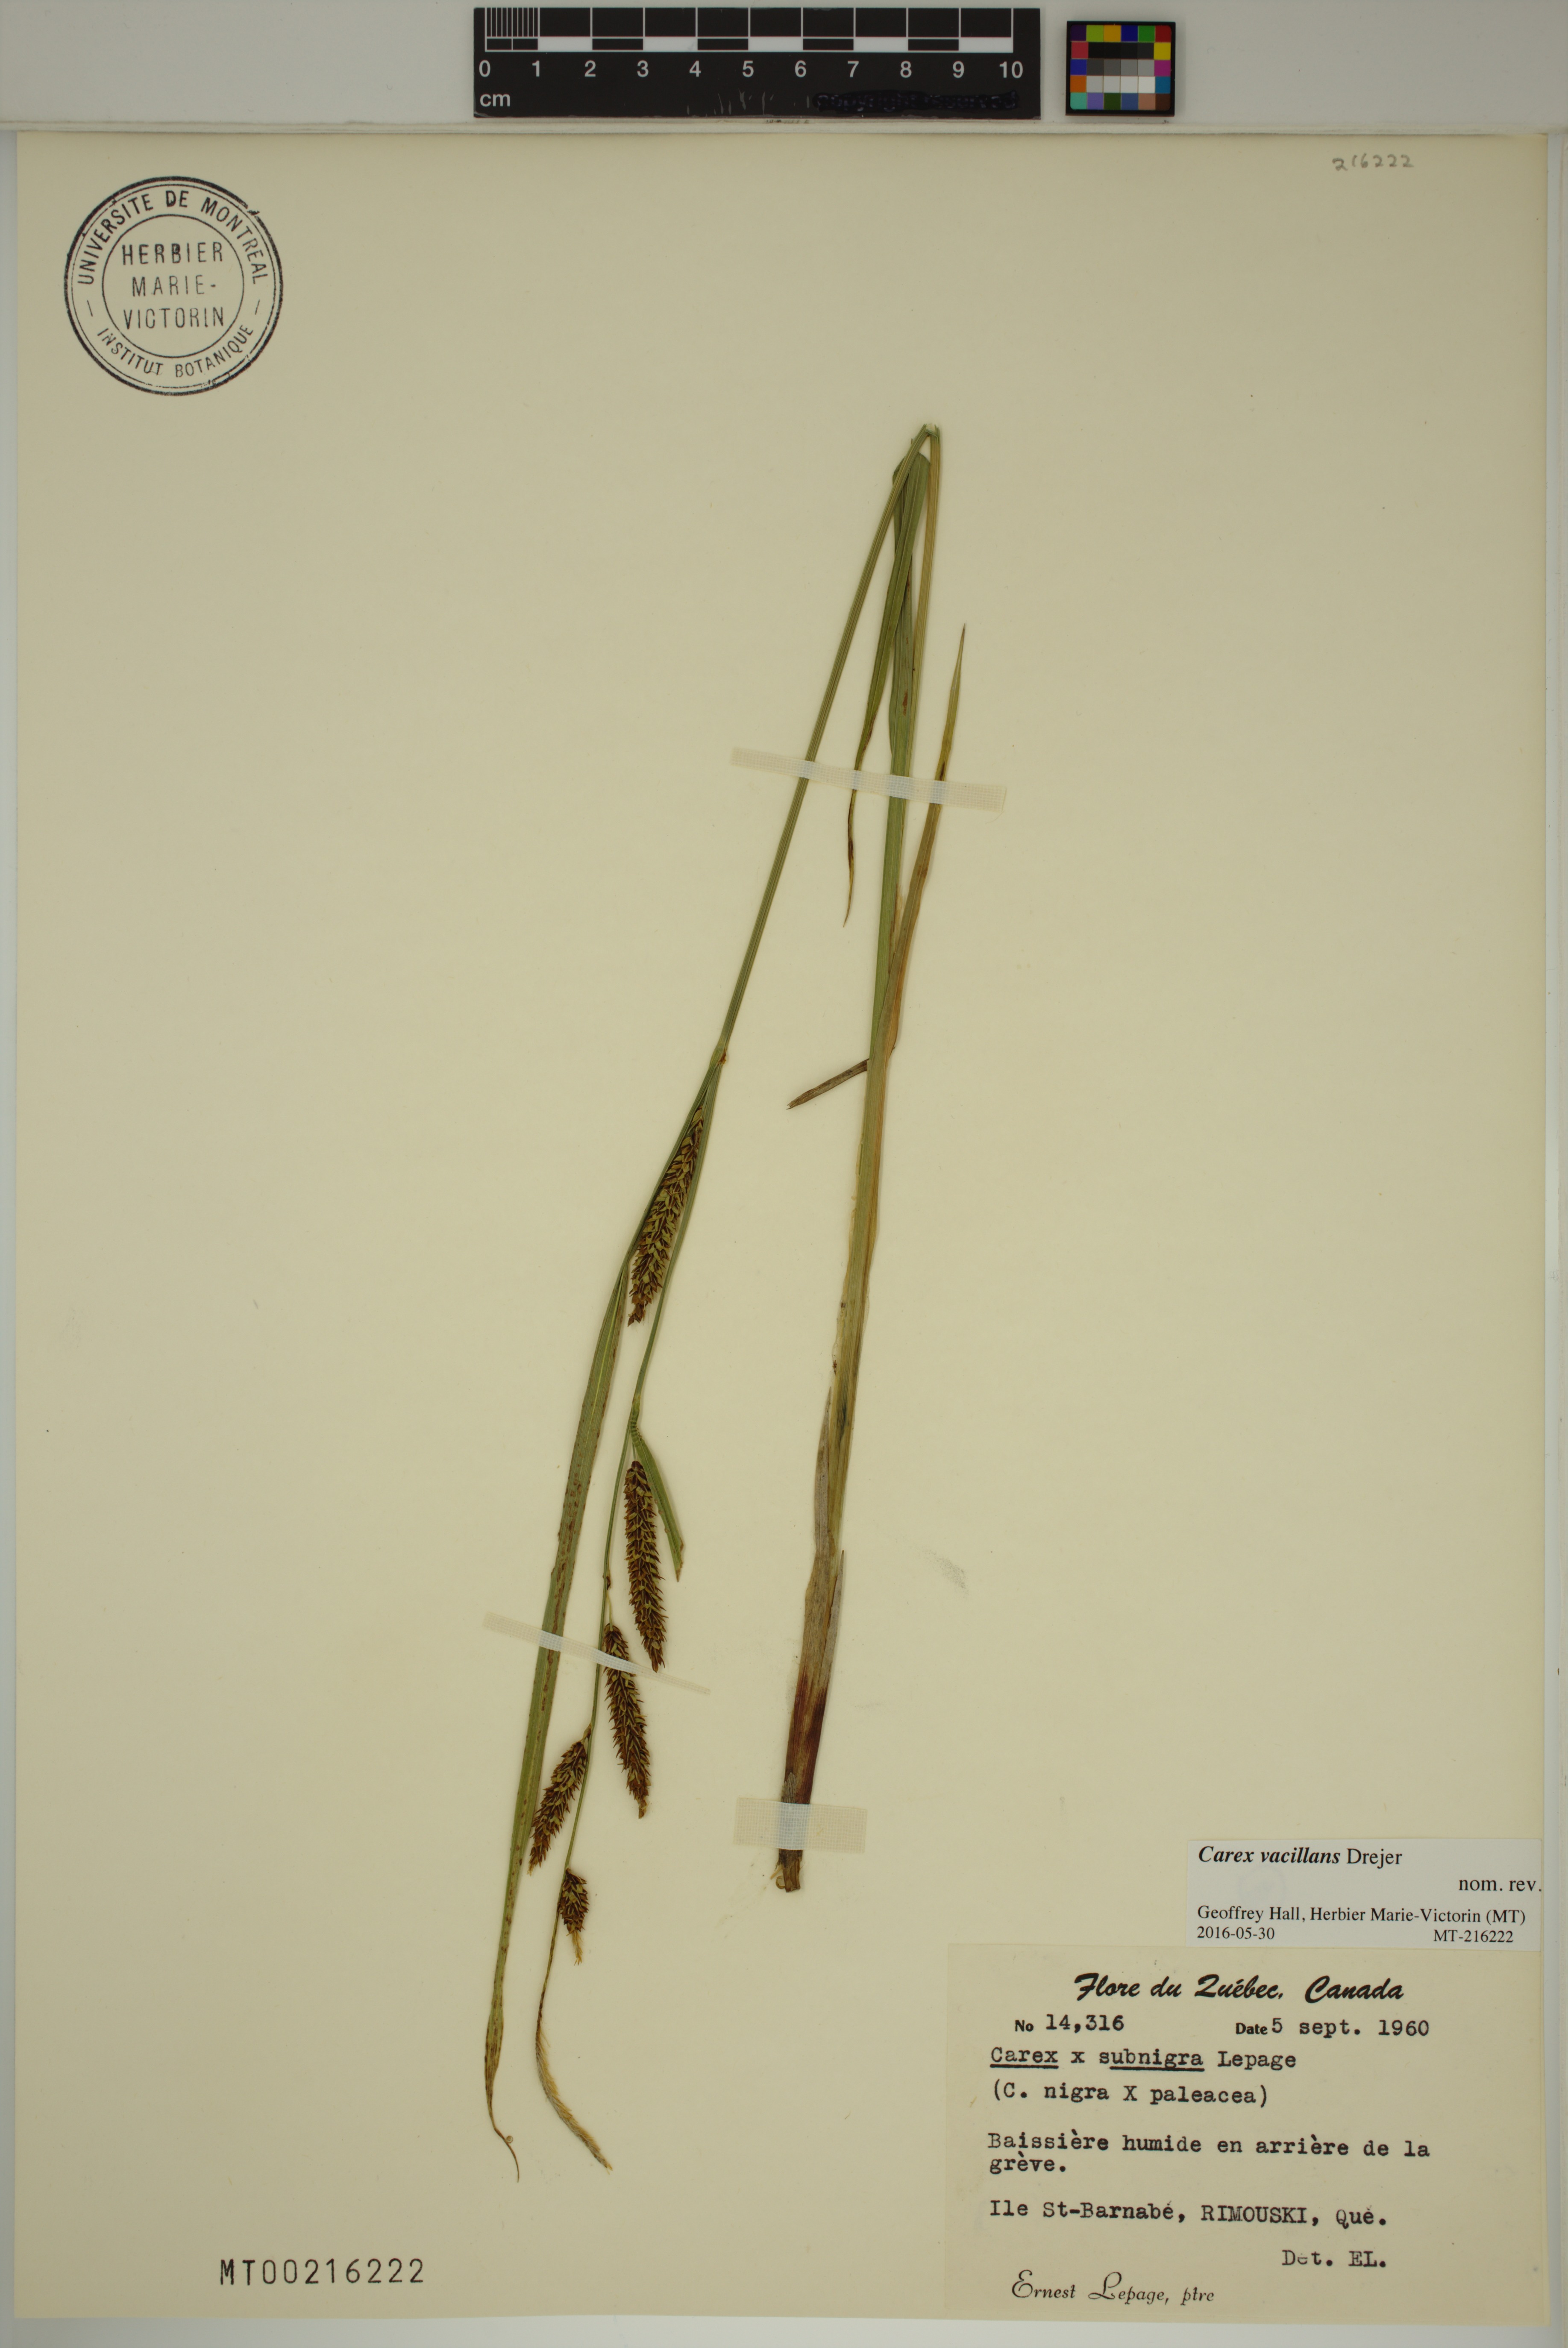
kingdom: Plantae
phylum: Tracheophyta
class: Liliopsida
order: Poales
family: Cyperaceae
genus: Carex
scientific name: Carex vacillans
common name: Sedge
